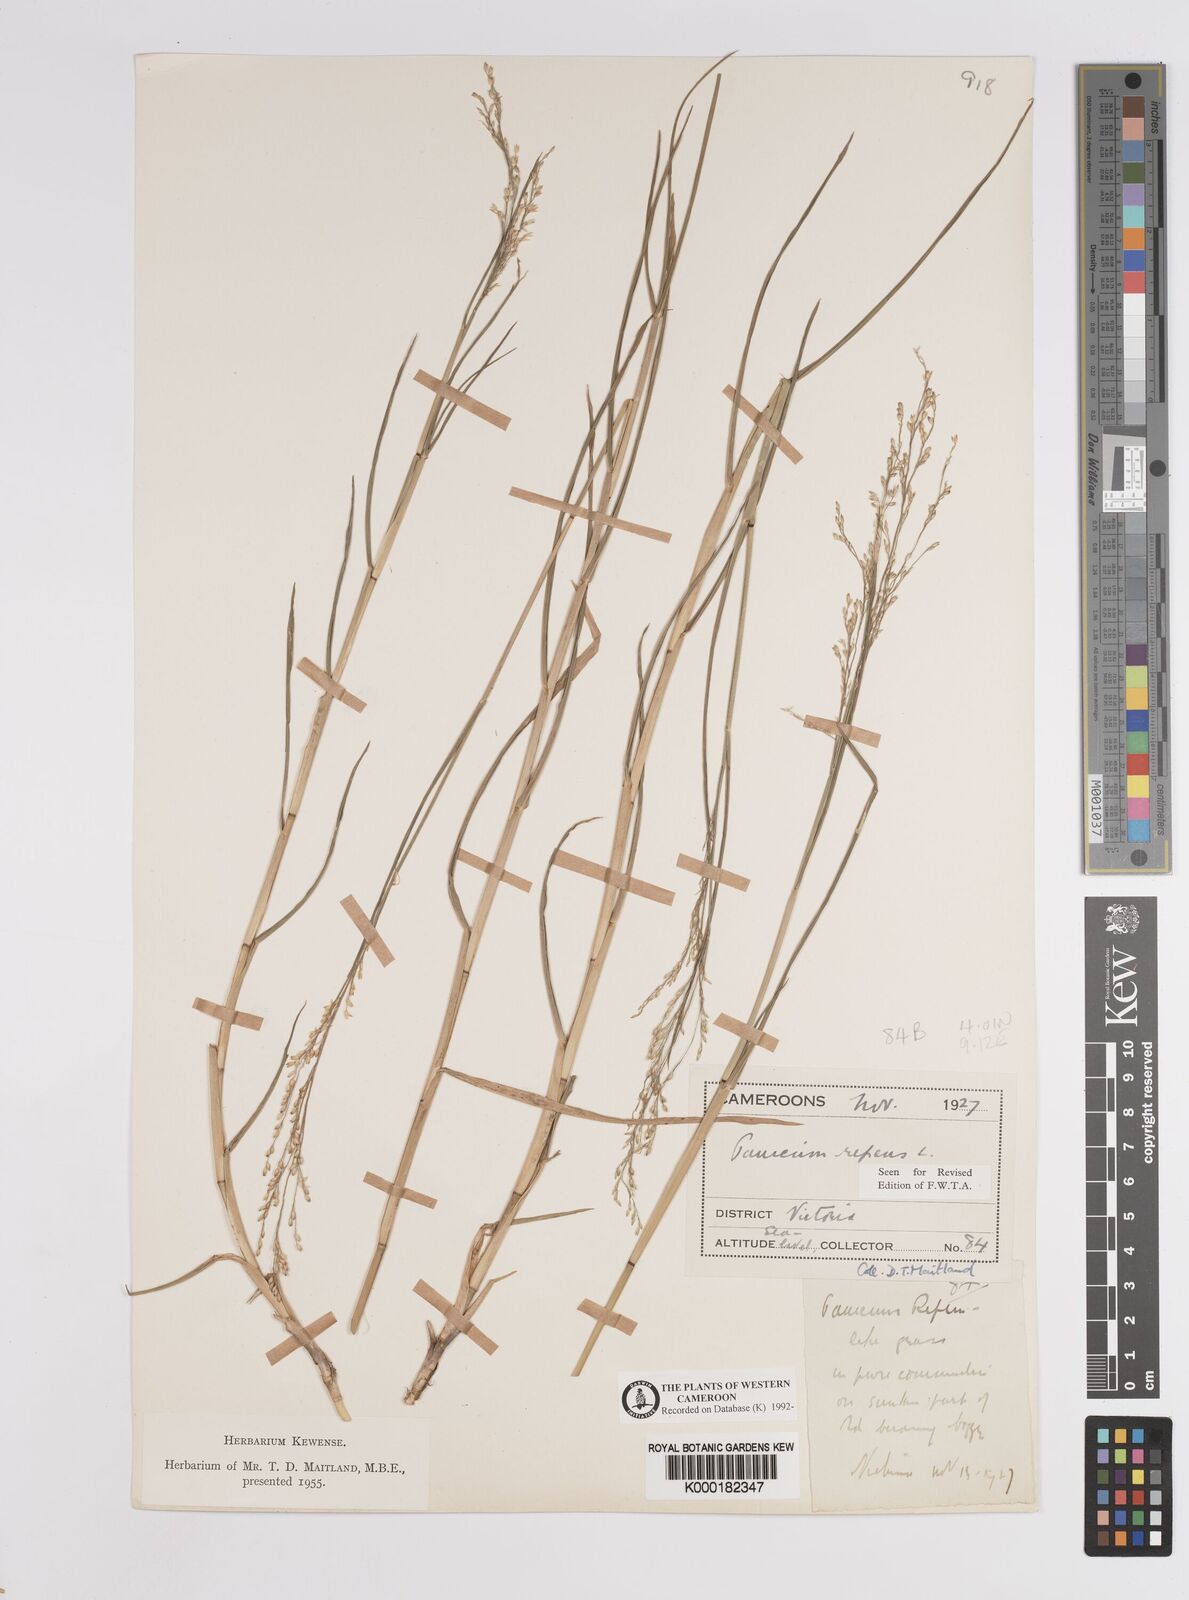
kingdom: Plantae
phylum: Tracheophyta
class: Liliopsida
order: Poales
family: Poaceae
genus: Panicum
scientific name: Panicum repens
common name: Torpedo grass
